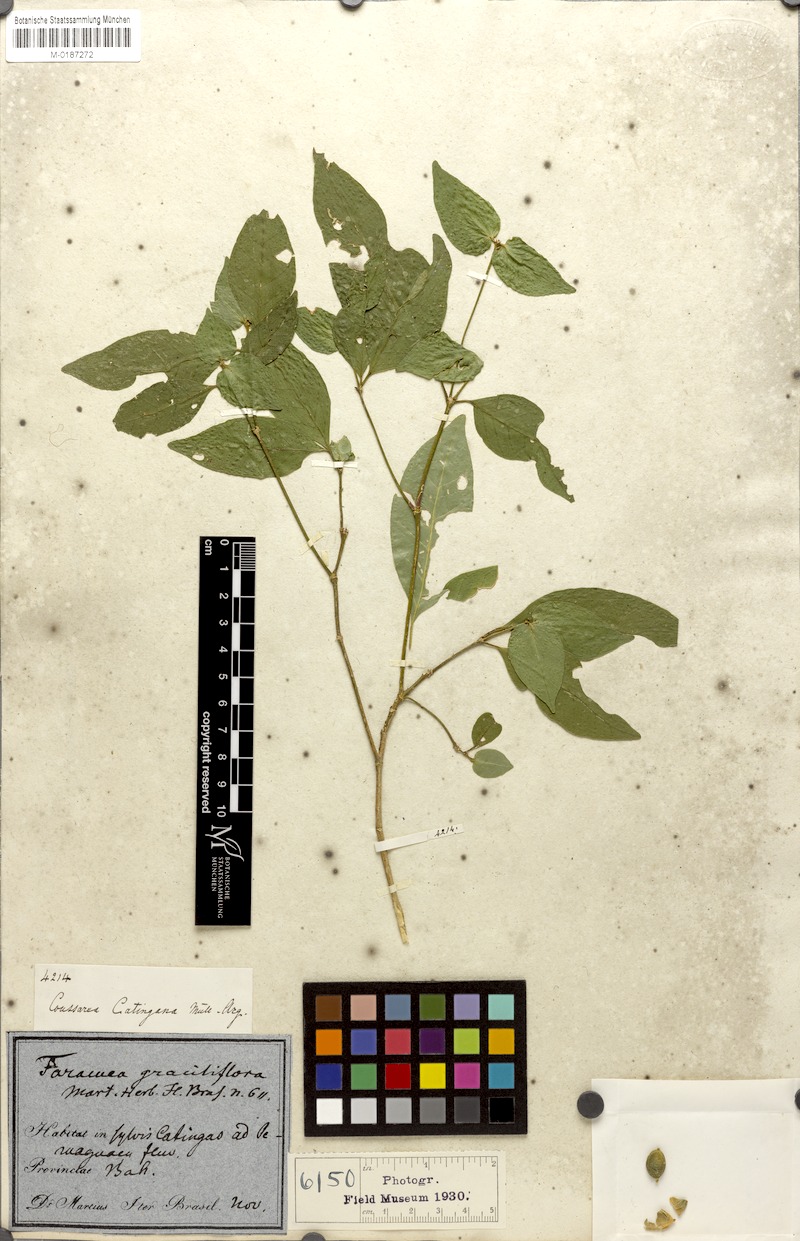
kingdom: Plantae
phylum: Tracheophyta
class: Magnoliopsida
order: Gentianales
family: Rubiaceae
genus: Coussarea
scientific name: Coussarea catingana
